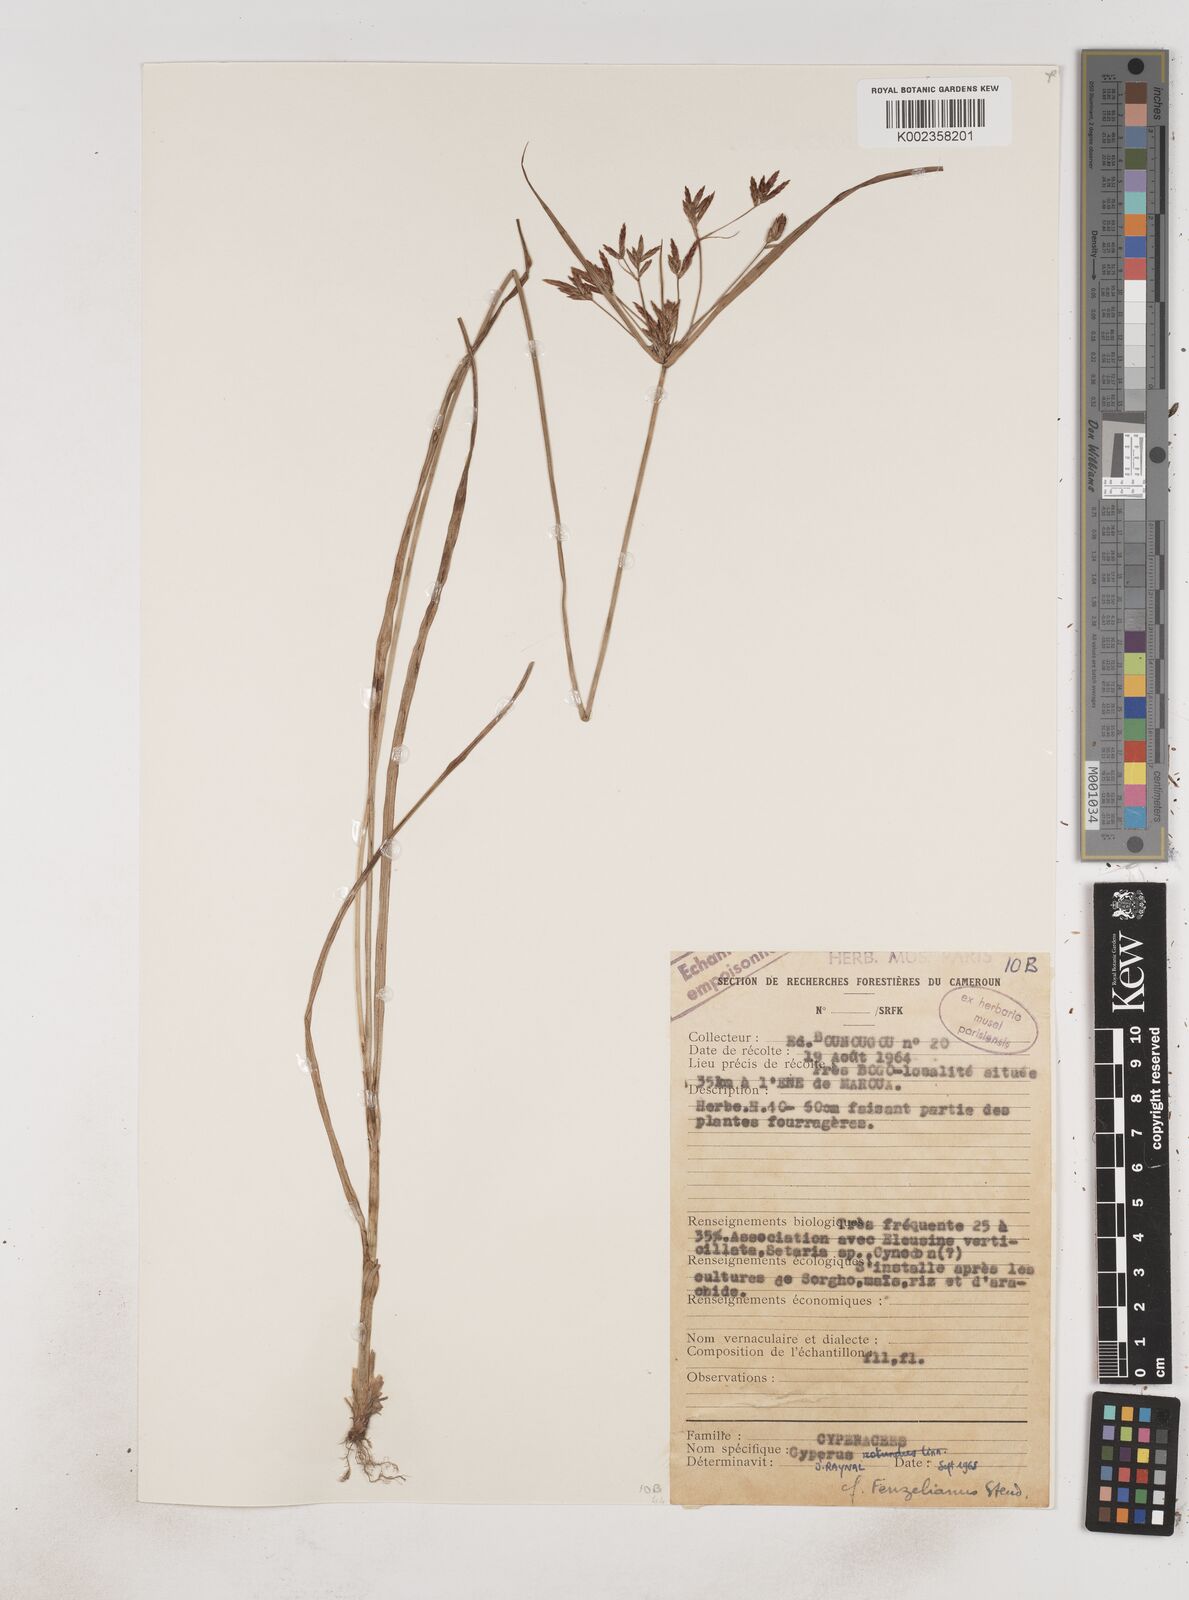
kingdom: Plantae
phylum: Tracheophyta
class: Liliopsida
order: Poales
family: Cyperaceae
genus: Cyperus
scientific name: Cyperus longus
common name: Galingale
